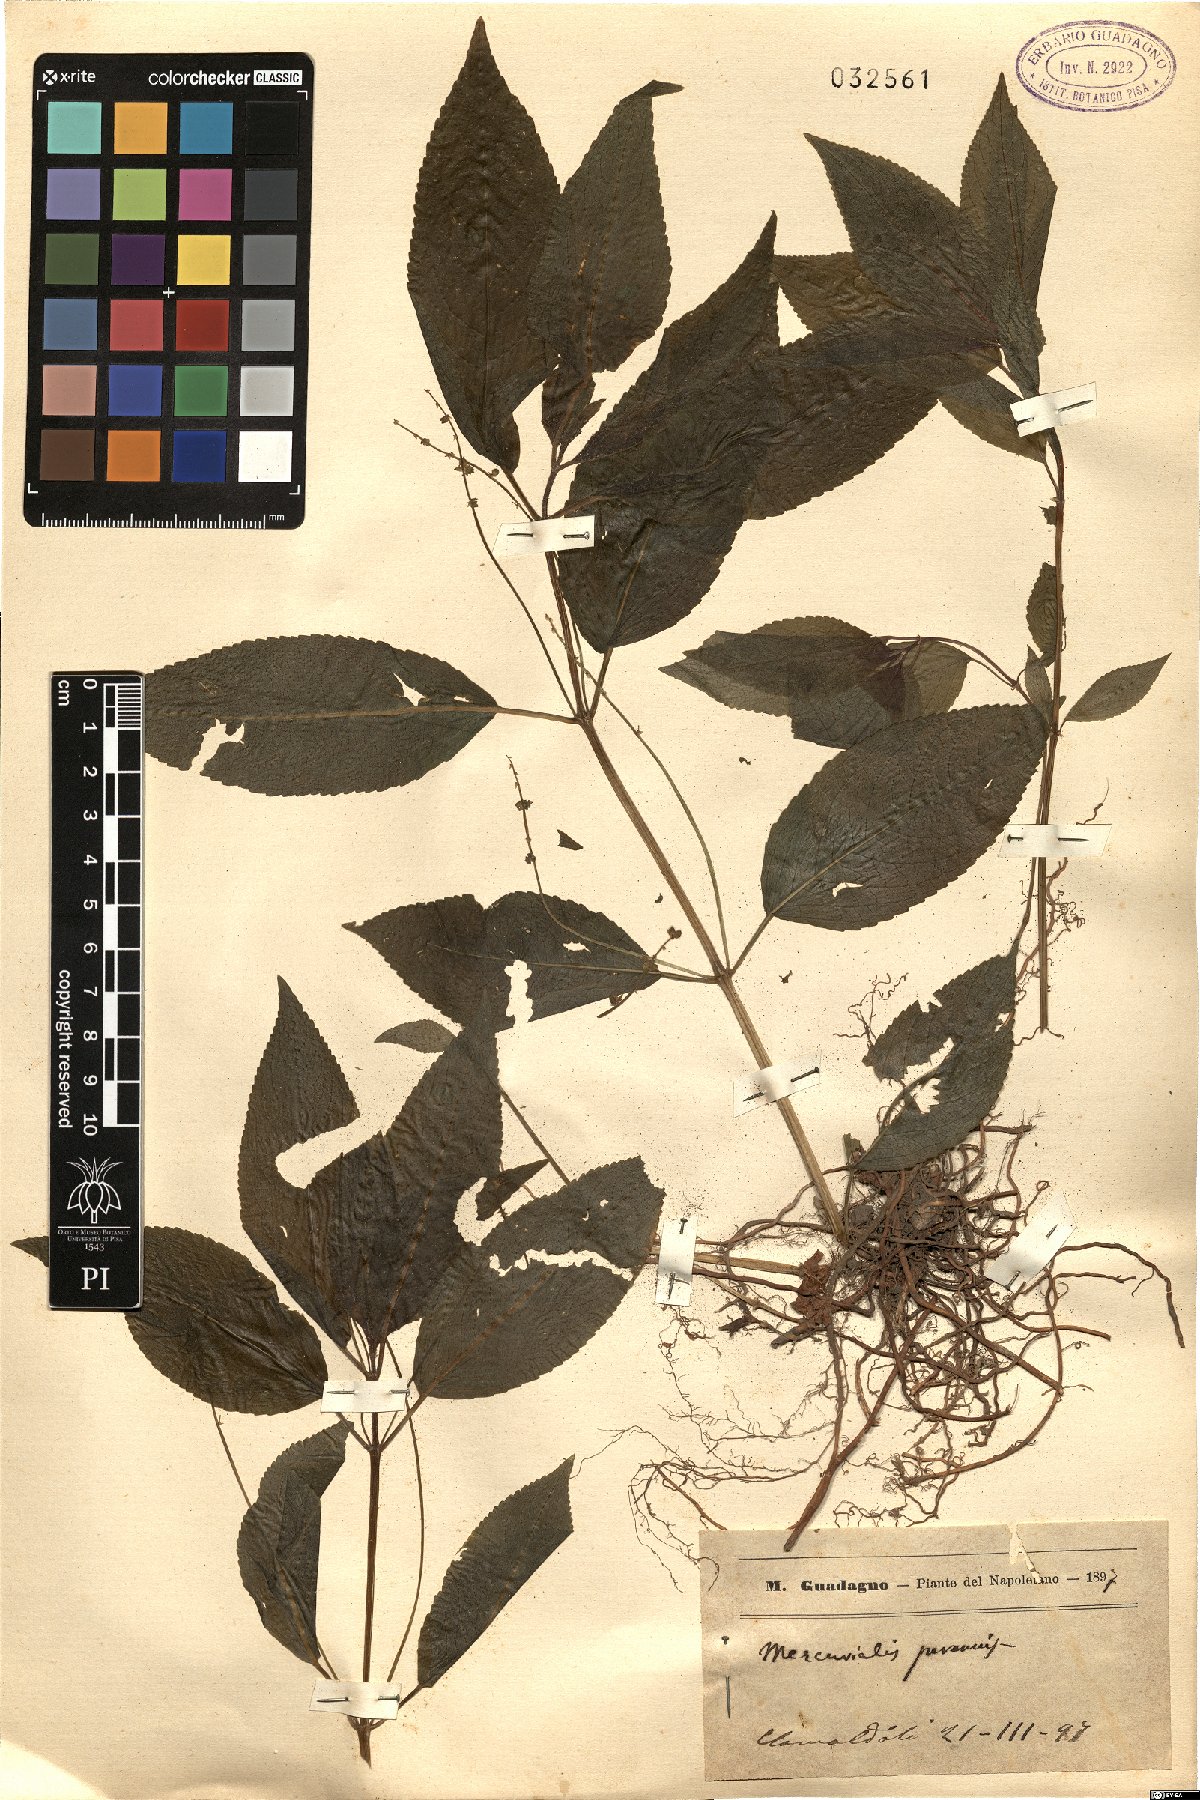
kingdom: Plantae
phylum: Tracheophyta
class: Magnoliopsida
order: Malpighiales
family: Euphorbiaceae
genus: Mercurialis
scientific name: Mercurialis perennis
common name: Dog mercury
